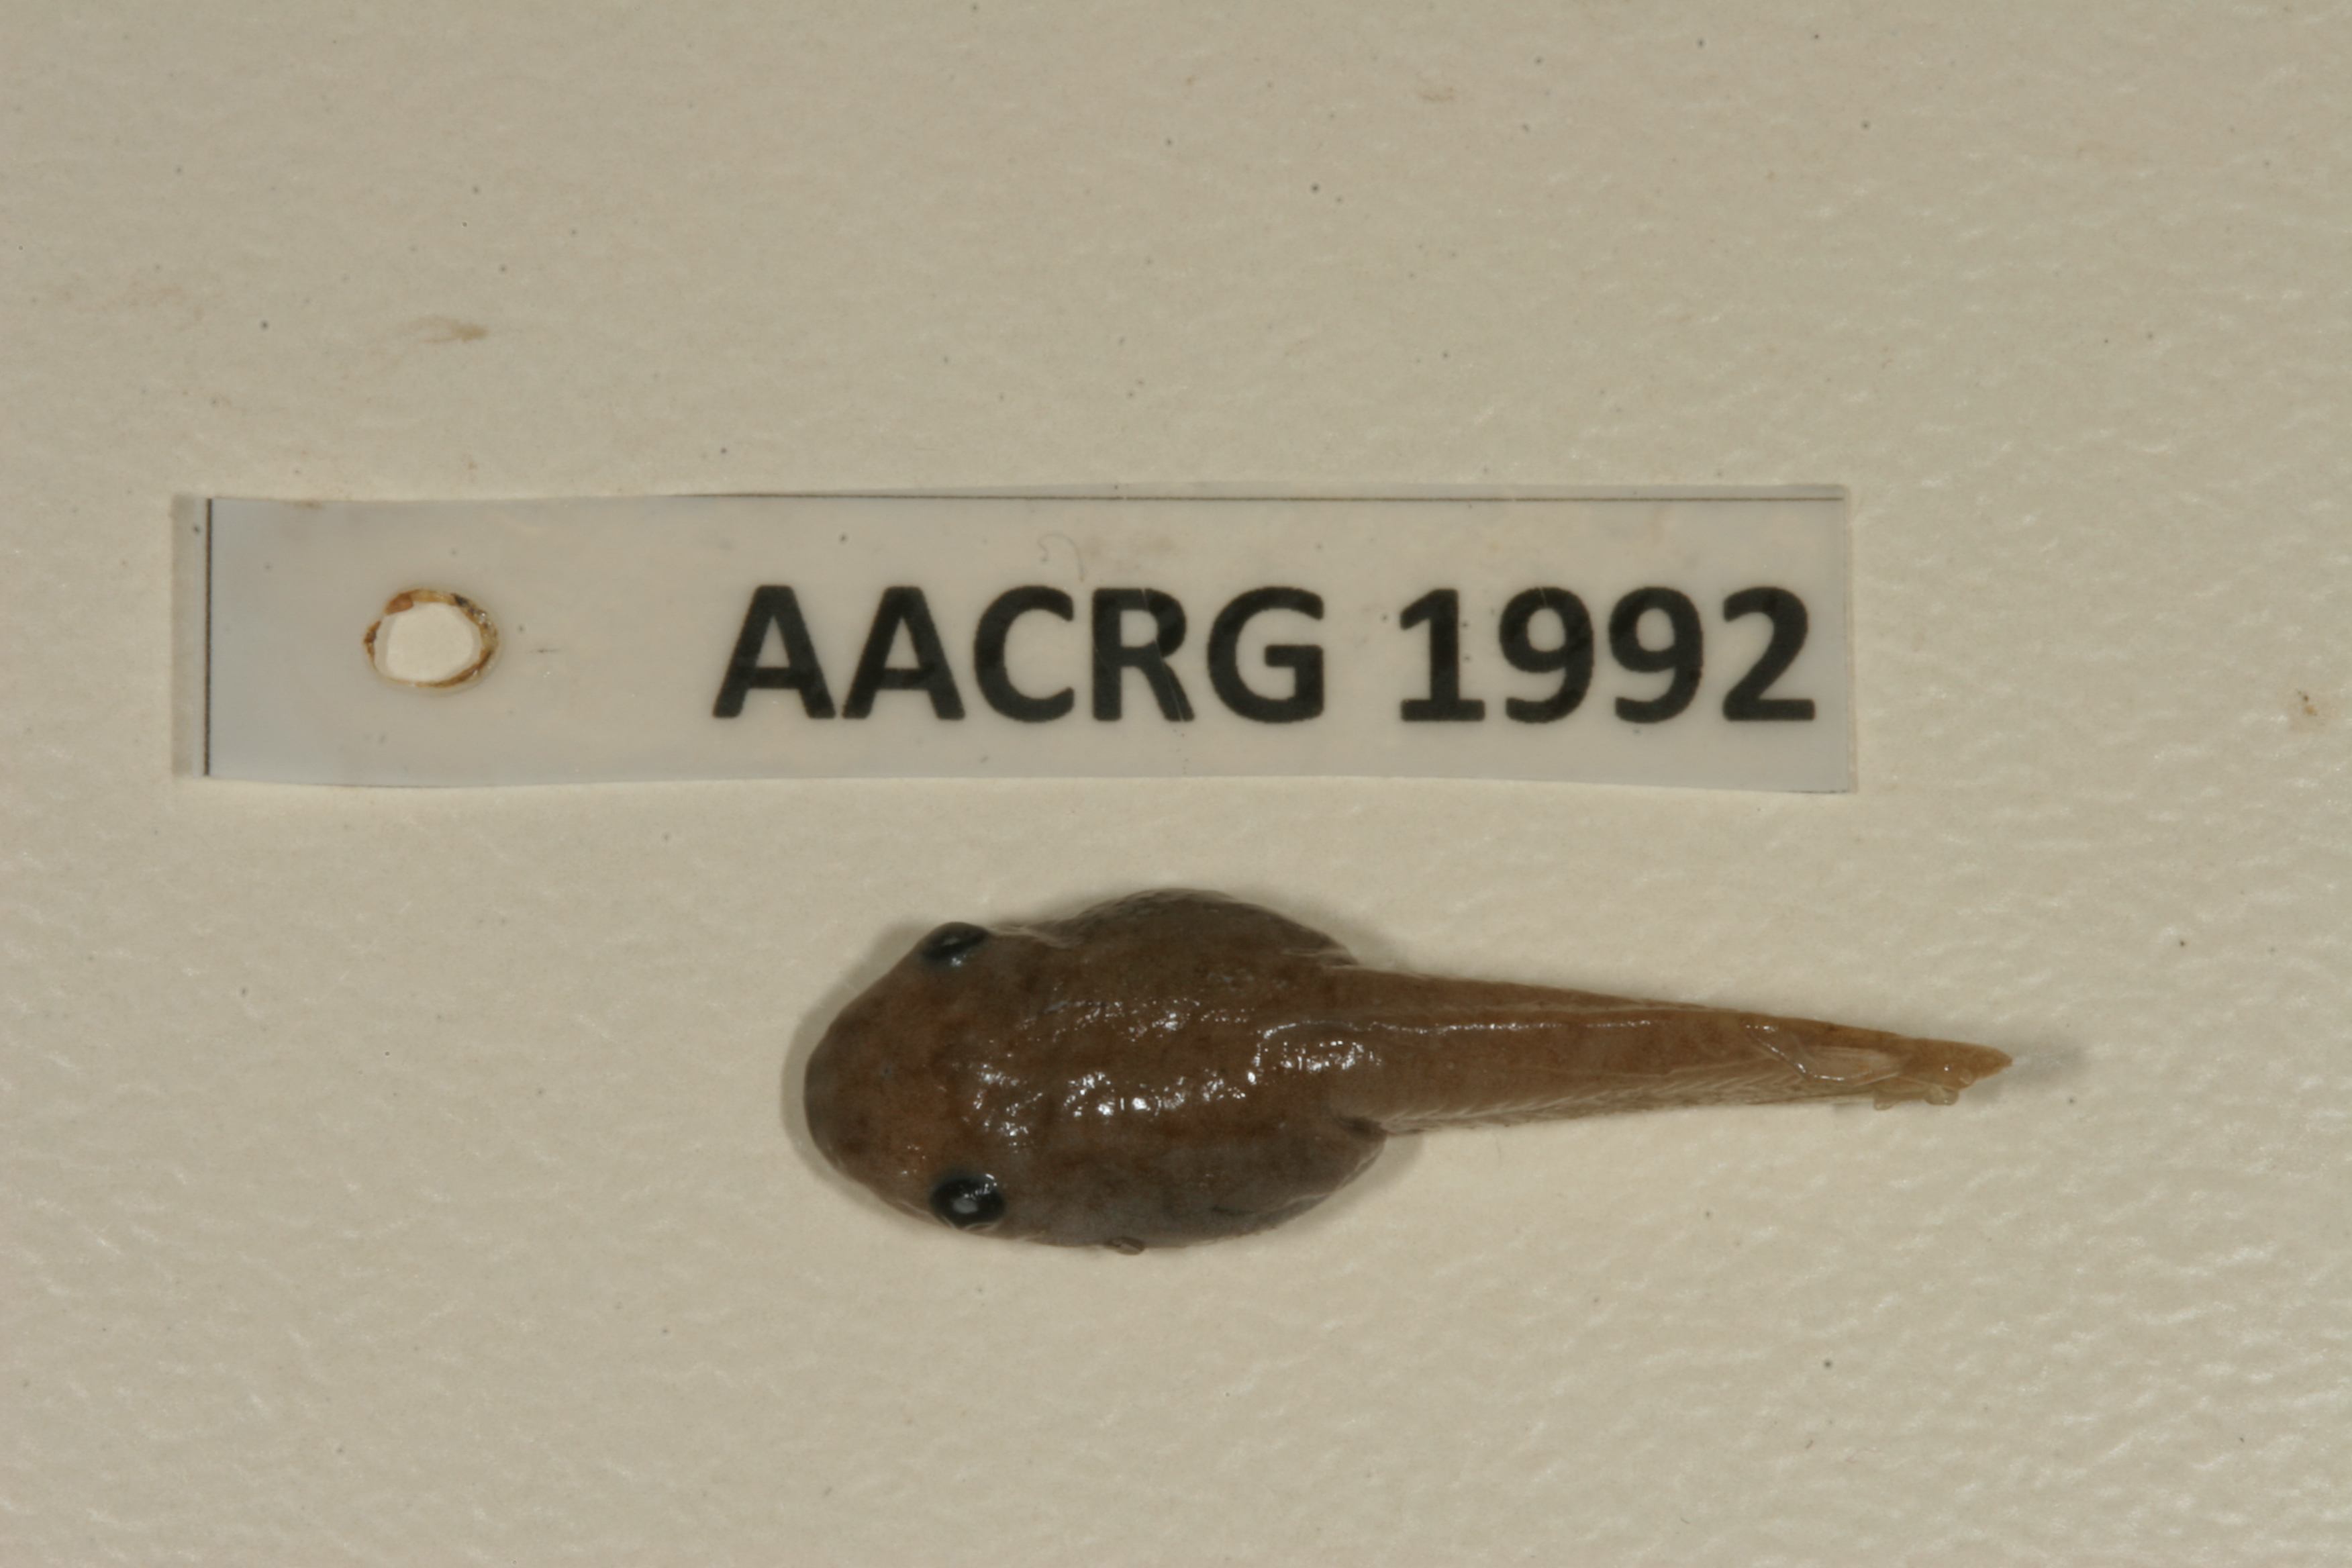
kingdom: Animalia
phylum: Chordata
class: Amphibia
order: Anura
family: Hemisotidae
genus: Hemisus
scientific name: Hemisus marmoratus
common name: Mottled shovel-nosed frog
